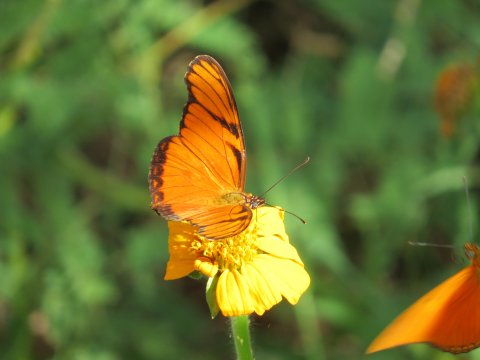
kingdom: Animalia
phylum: Arthropoda
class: Insecta
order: Lepidoptera
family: Nymphalidae
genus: Dione
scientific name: Dione juno
